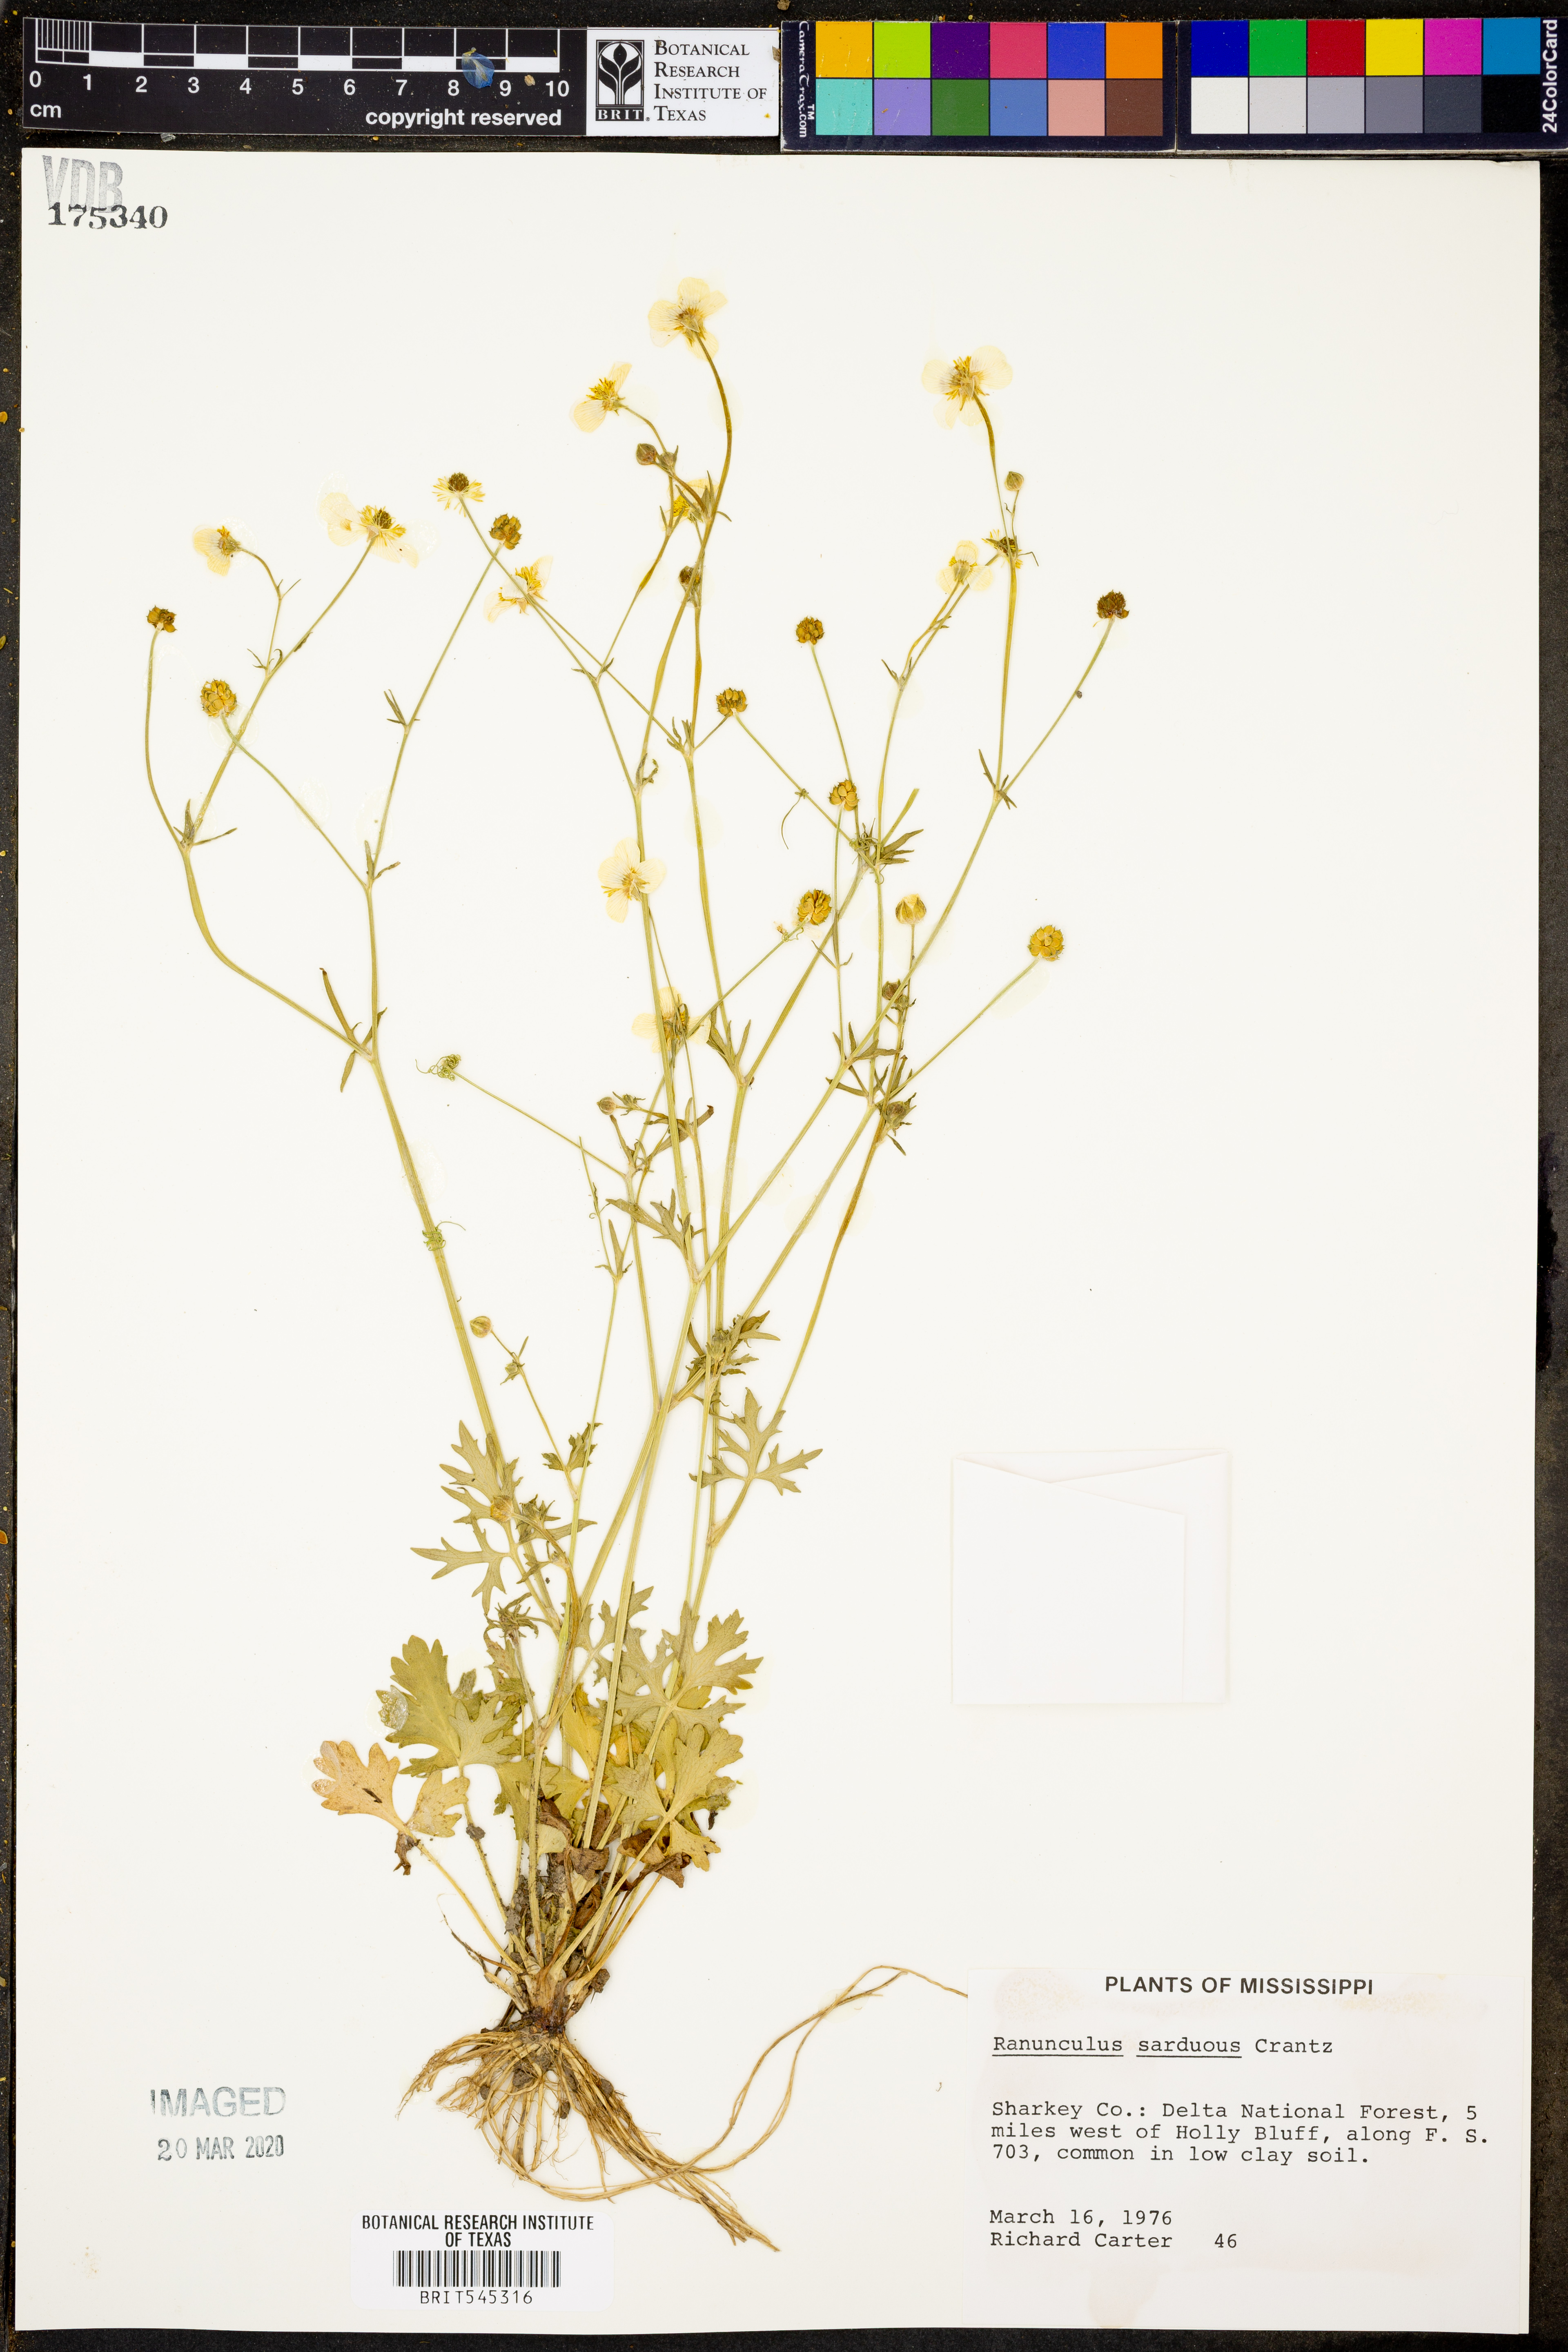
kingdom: Plantae
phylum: Tracheophyta
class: Magnoliopsida
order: Ranunculales
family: Ranunculaceae
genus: Ranunculus
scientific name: Ranunculus sardous
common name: Hairy buttercup
